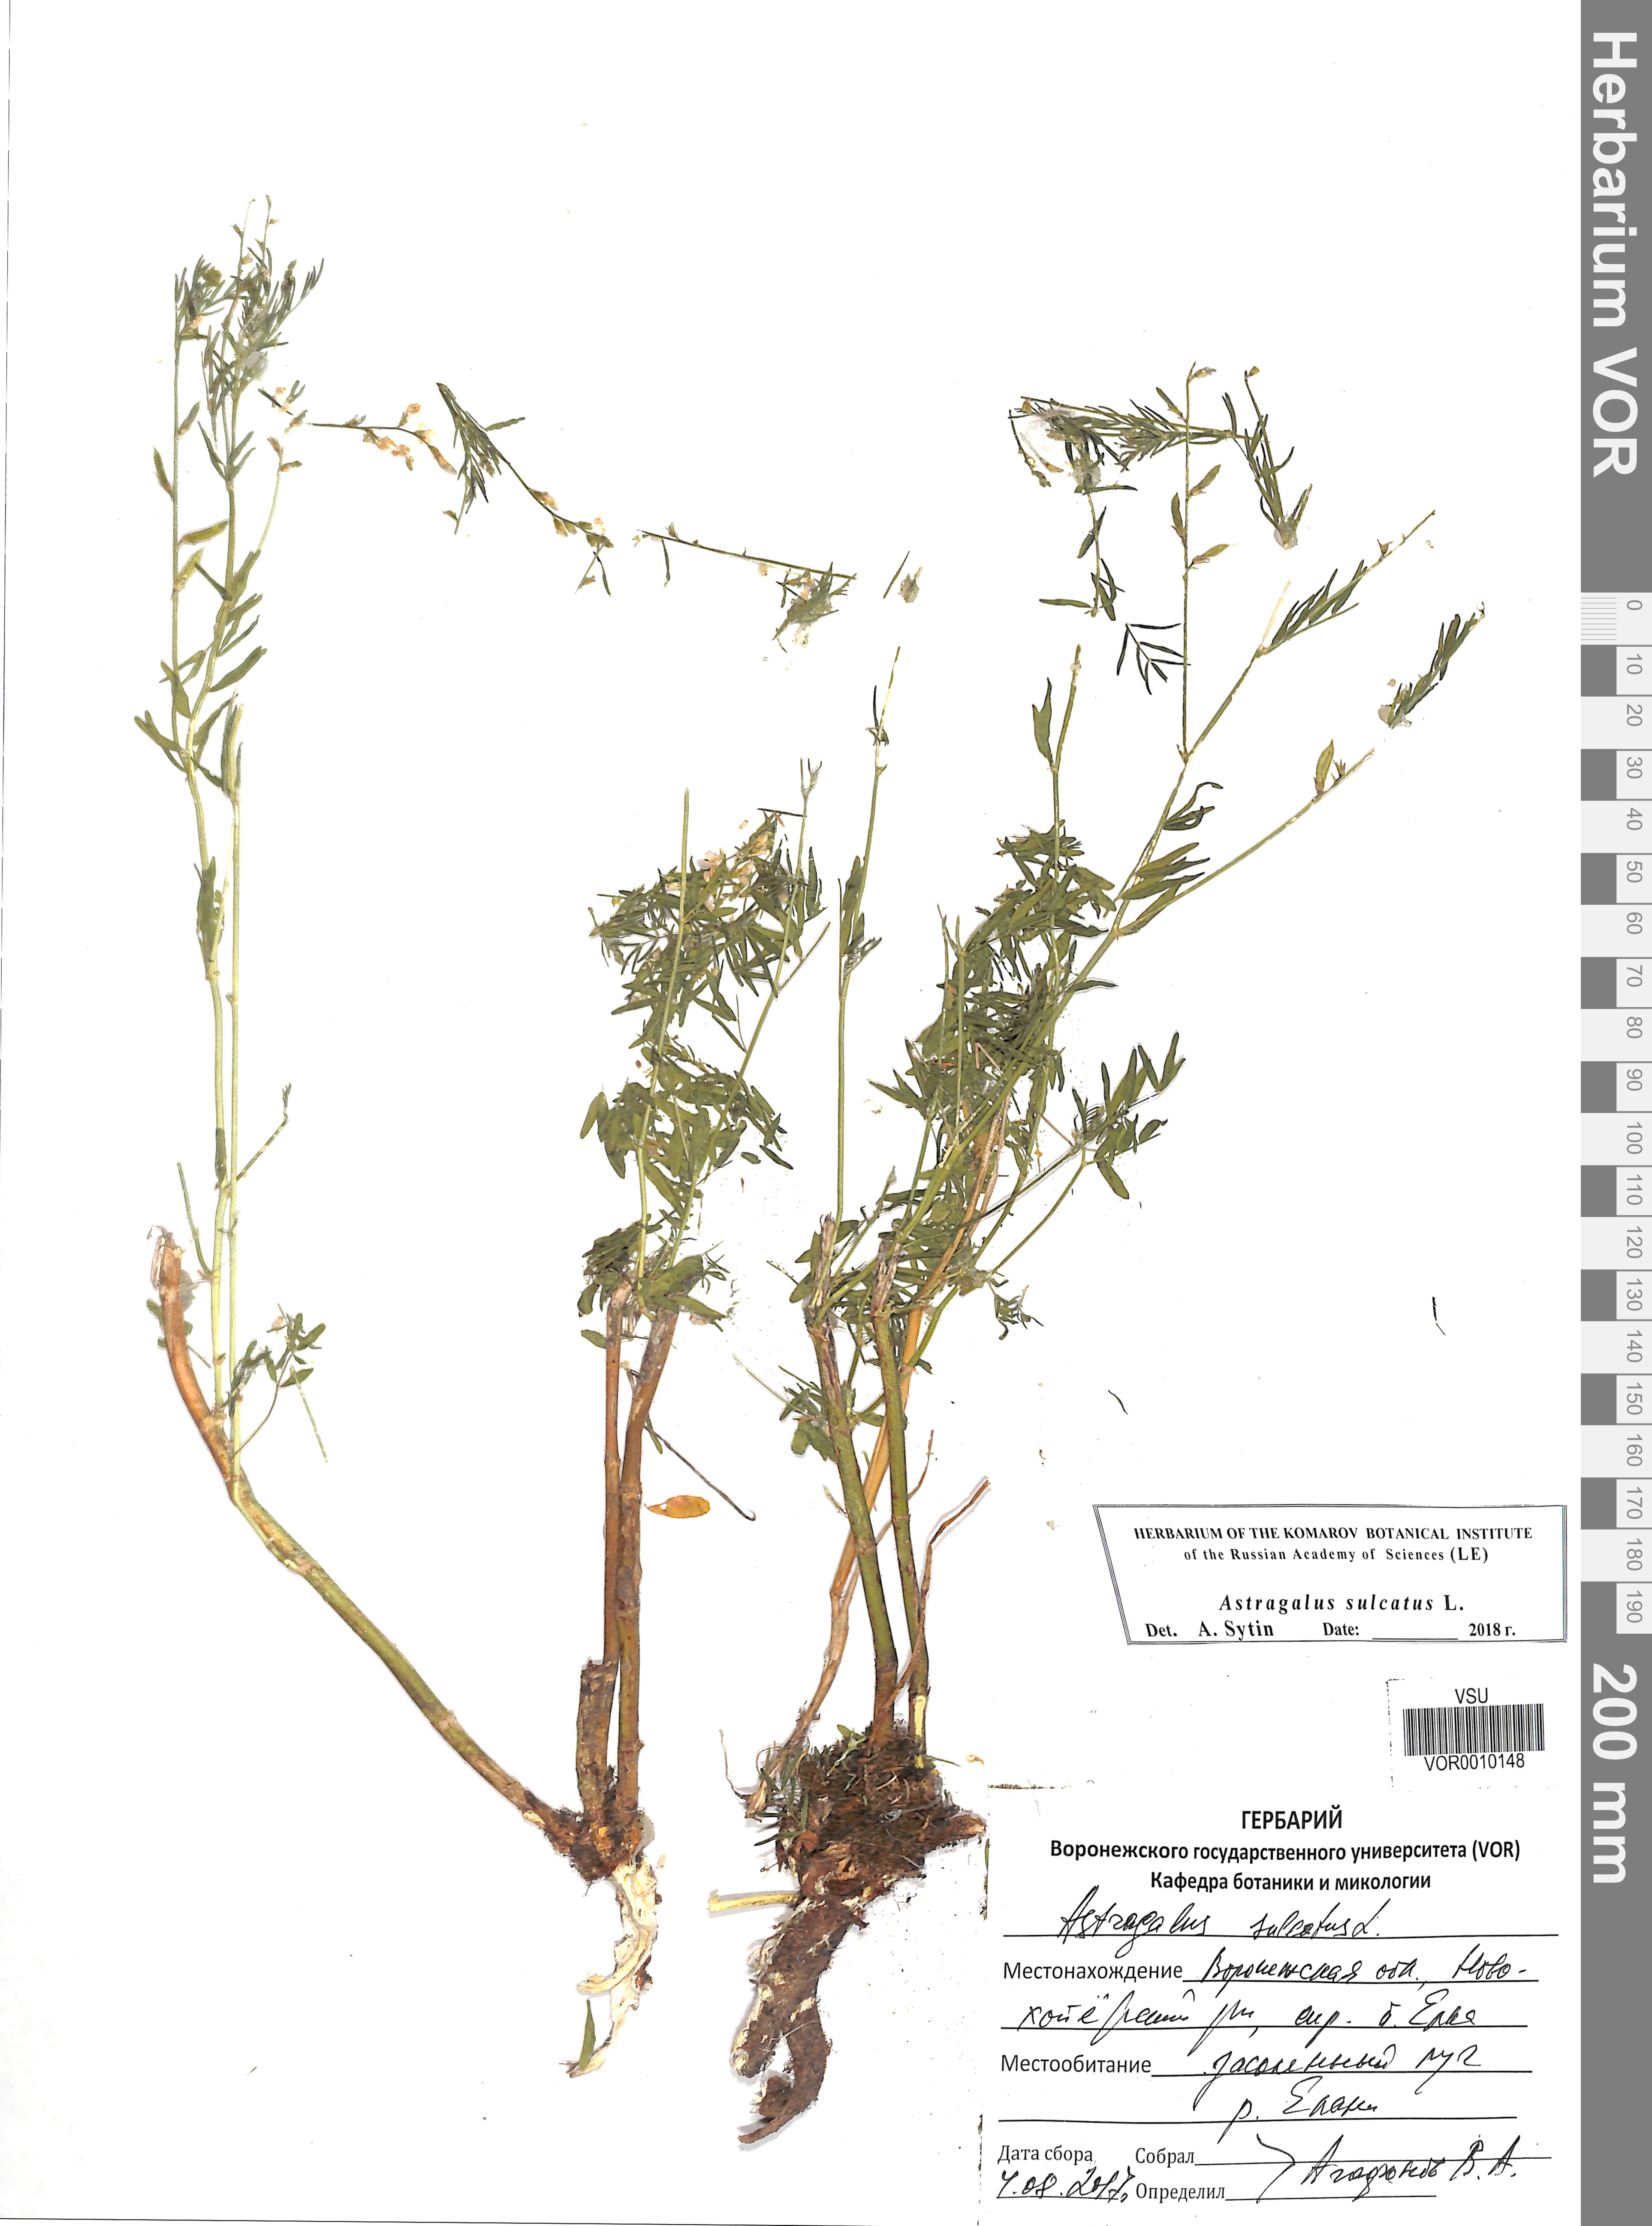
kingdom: Plantae
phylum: Tracheophyta
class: Magnoliopsida
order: Fabales
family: Fabaceae
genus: Astragalus
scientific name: Astragalus sulcatus
